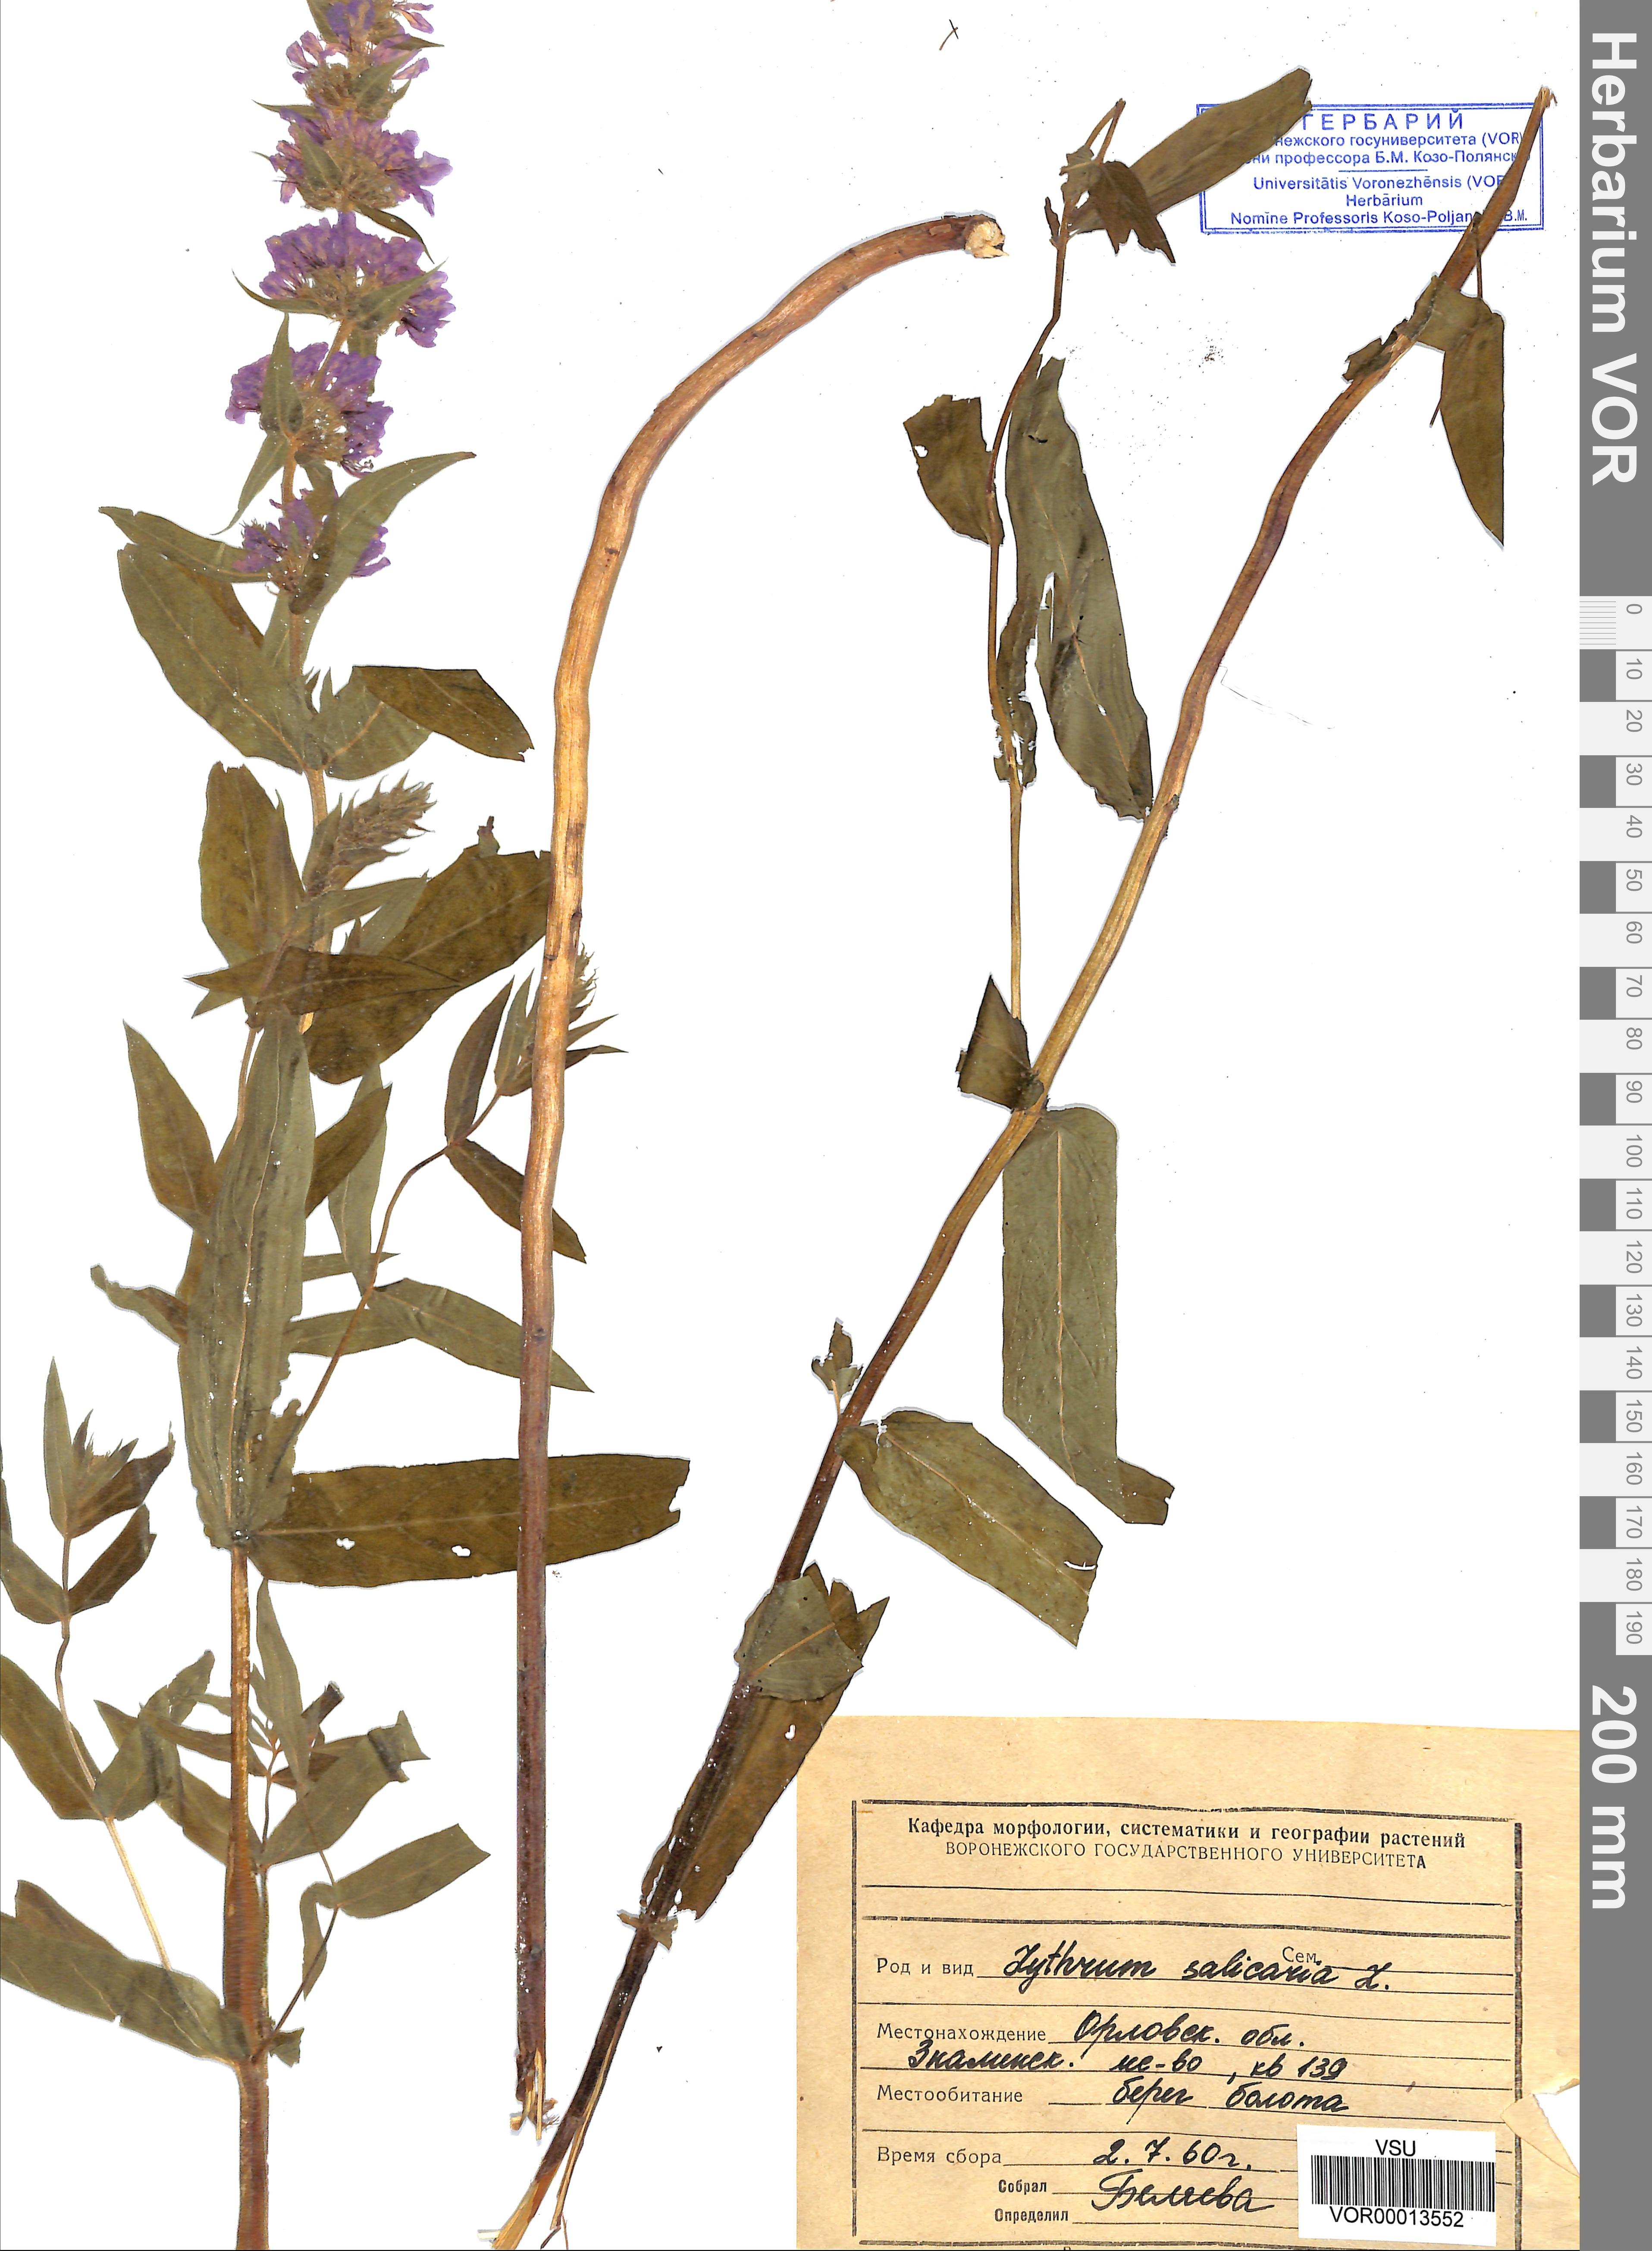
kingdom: Plantae
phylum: Tracheophyta
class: Magnoliopsida
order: Myrtales
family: Lythraceae
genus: Lythrum
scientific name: Lythrum salicaria
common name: Purple loosestrife
